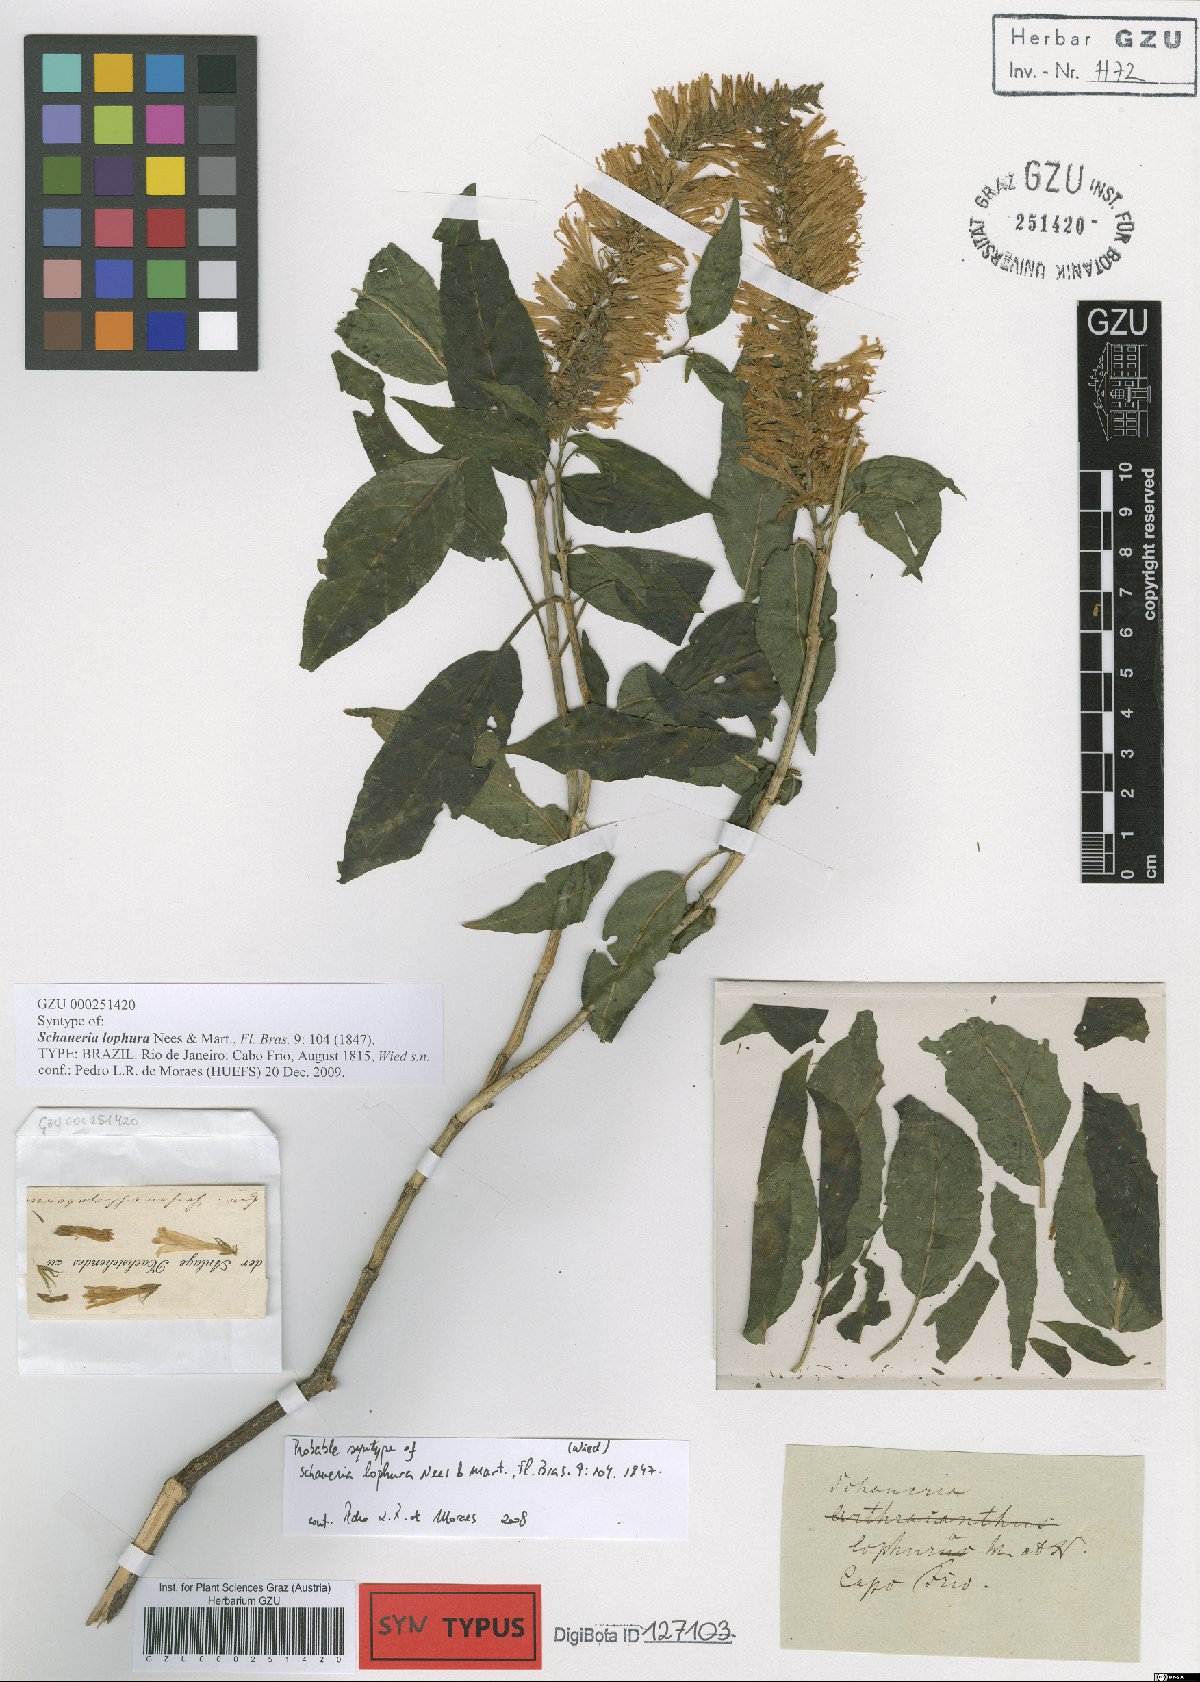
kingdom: Plantae
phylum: Tracheophyta
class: Magnoliopsida
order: Lamiales
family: Acanthaceae
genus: Schaueria
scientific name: Schaueria litoralis
